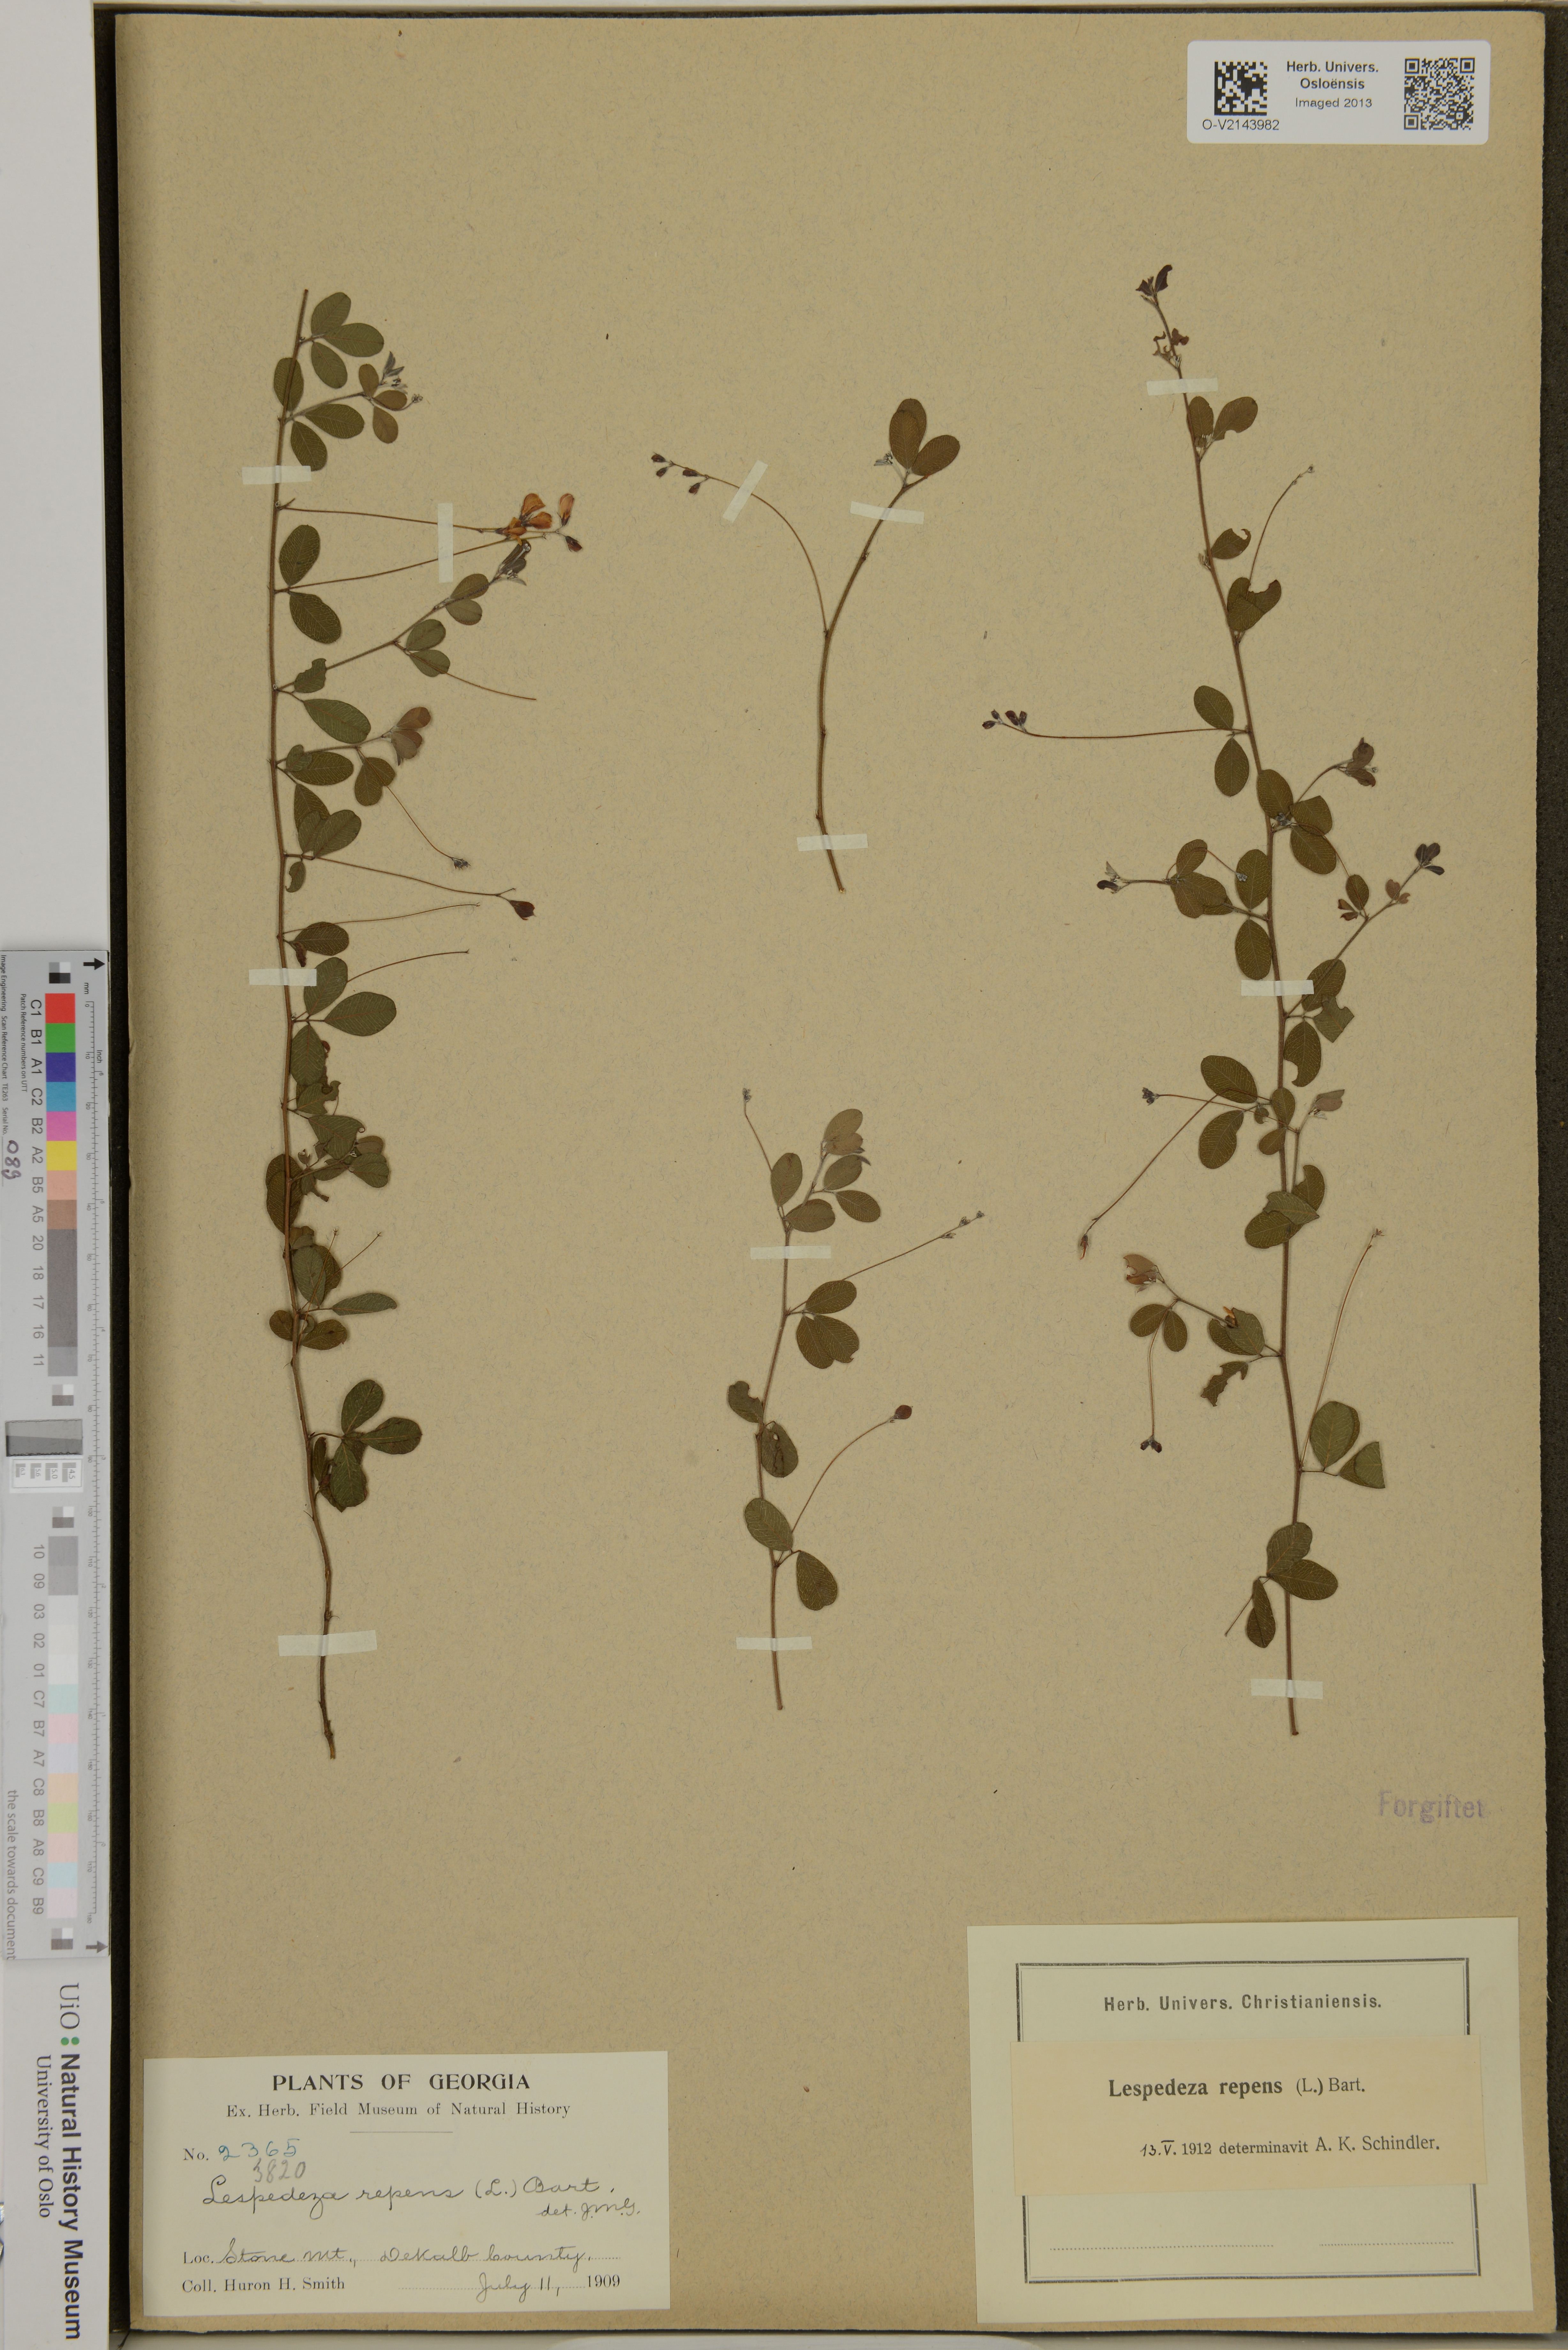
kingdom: Plantae
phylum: Tracheophyta
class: Magnoliopsida
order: Fabales
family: Fabaceae
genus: Lespedeza
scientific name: Lespedeza repens
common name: Creeping bush-clover
